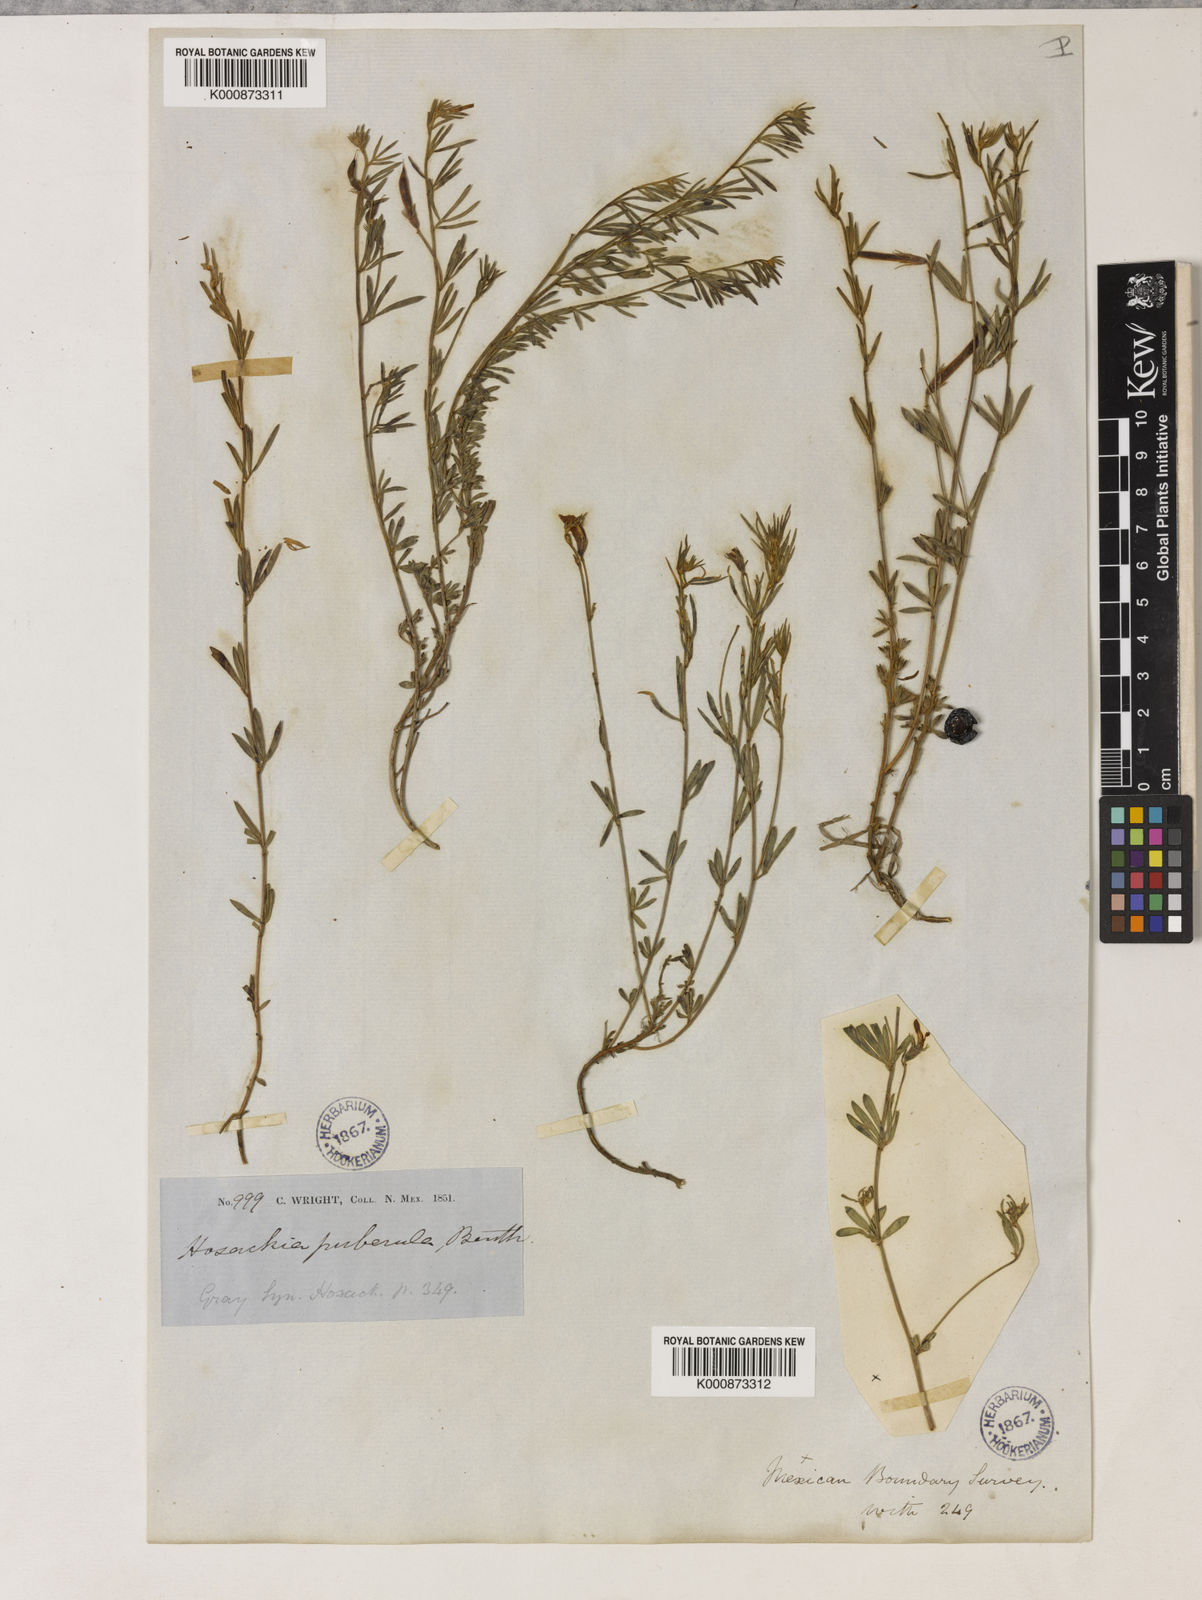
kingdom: Plantae
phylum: Tracheophyta
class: Magnoliopsida
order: Fabales
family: Fabaceae
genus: Acmispon
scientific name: Acmispon oroboides
